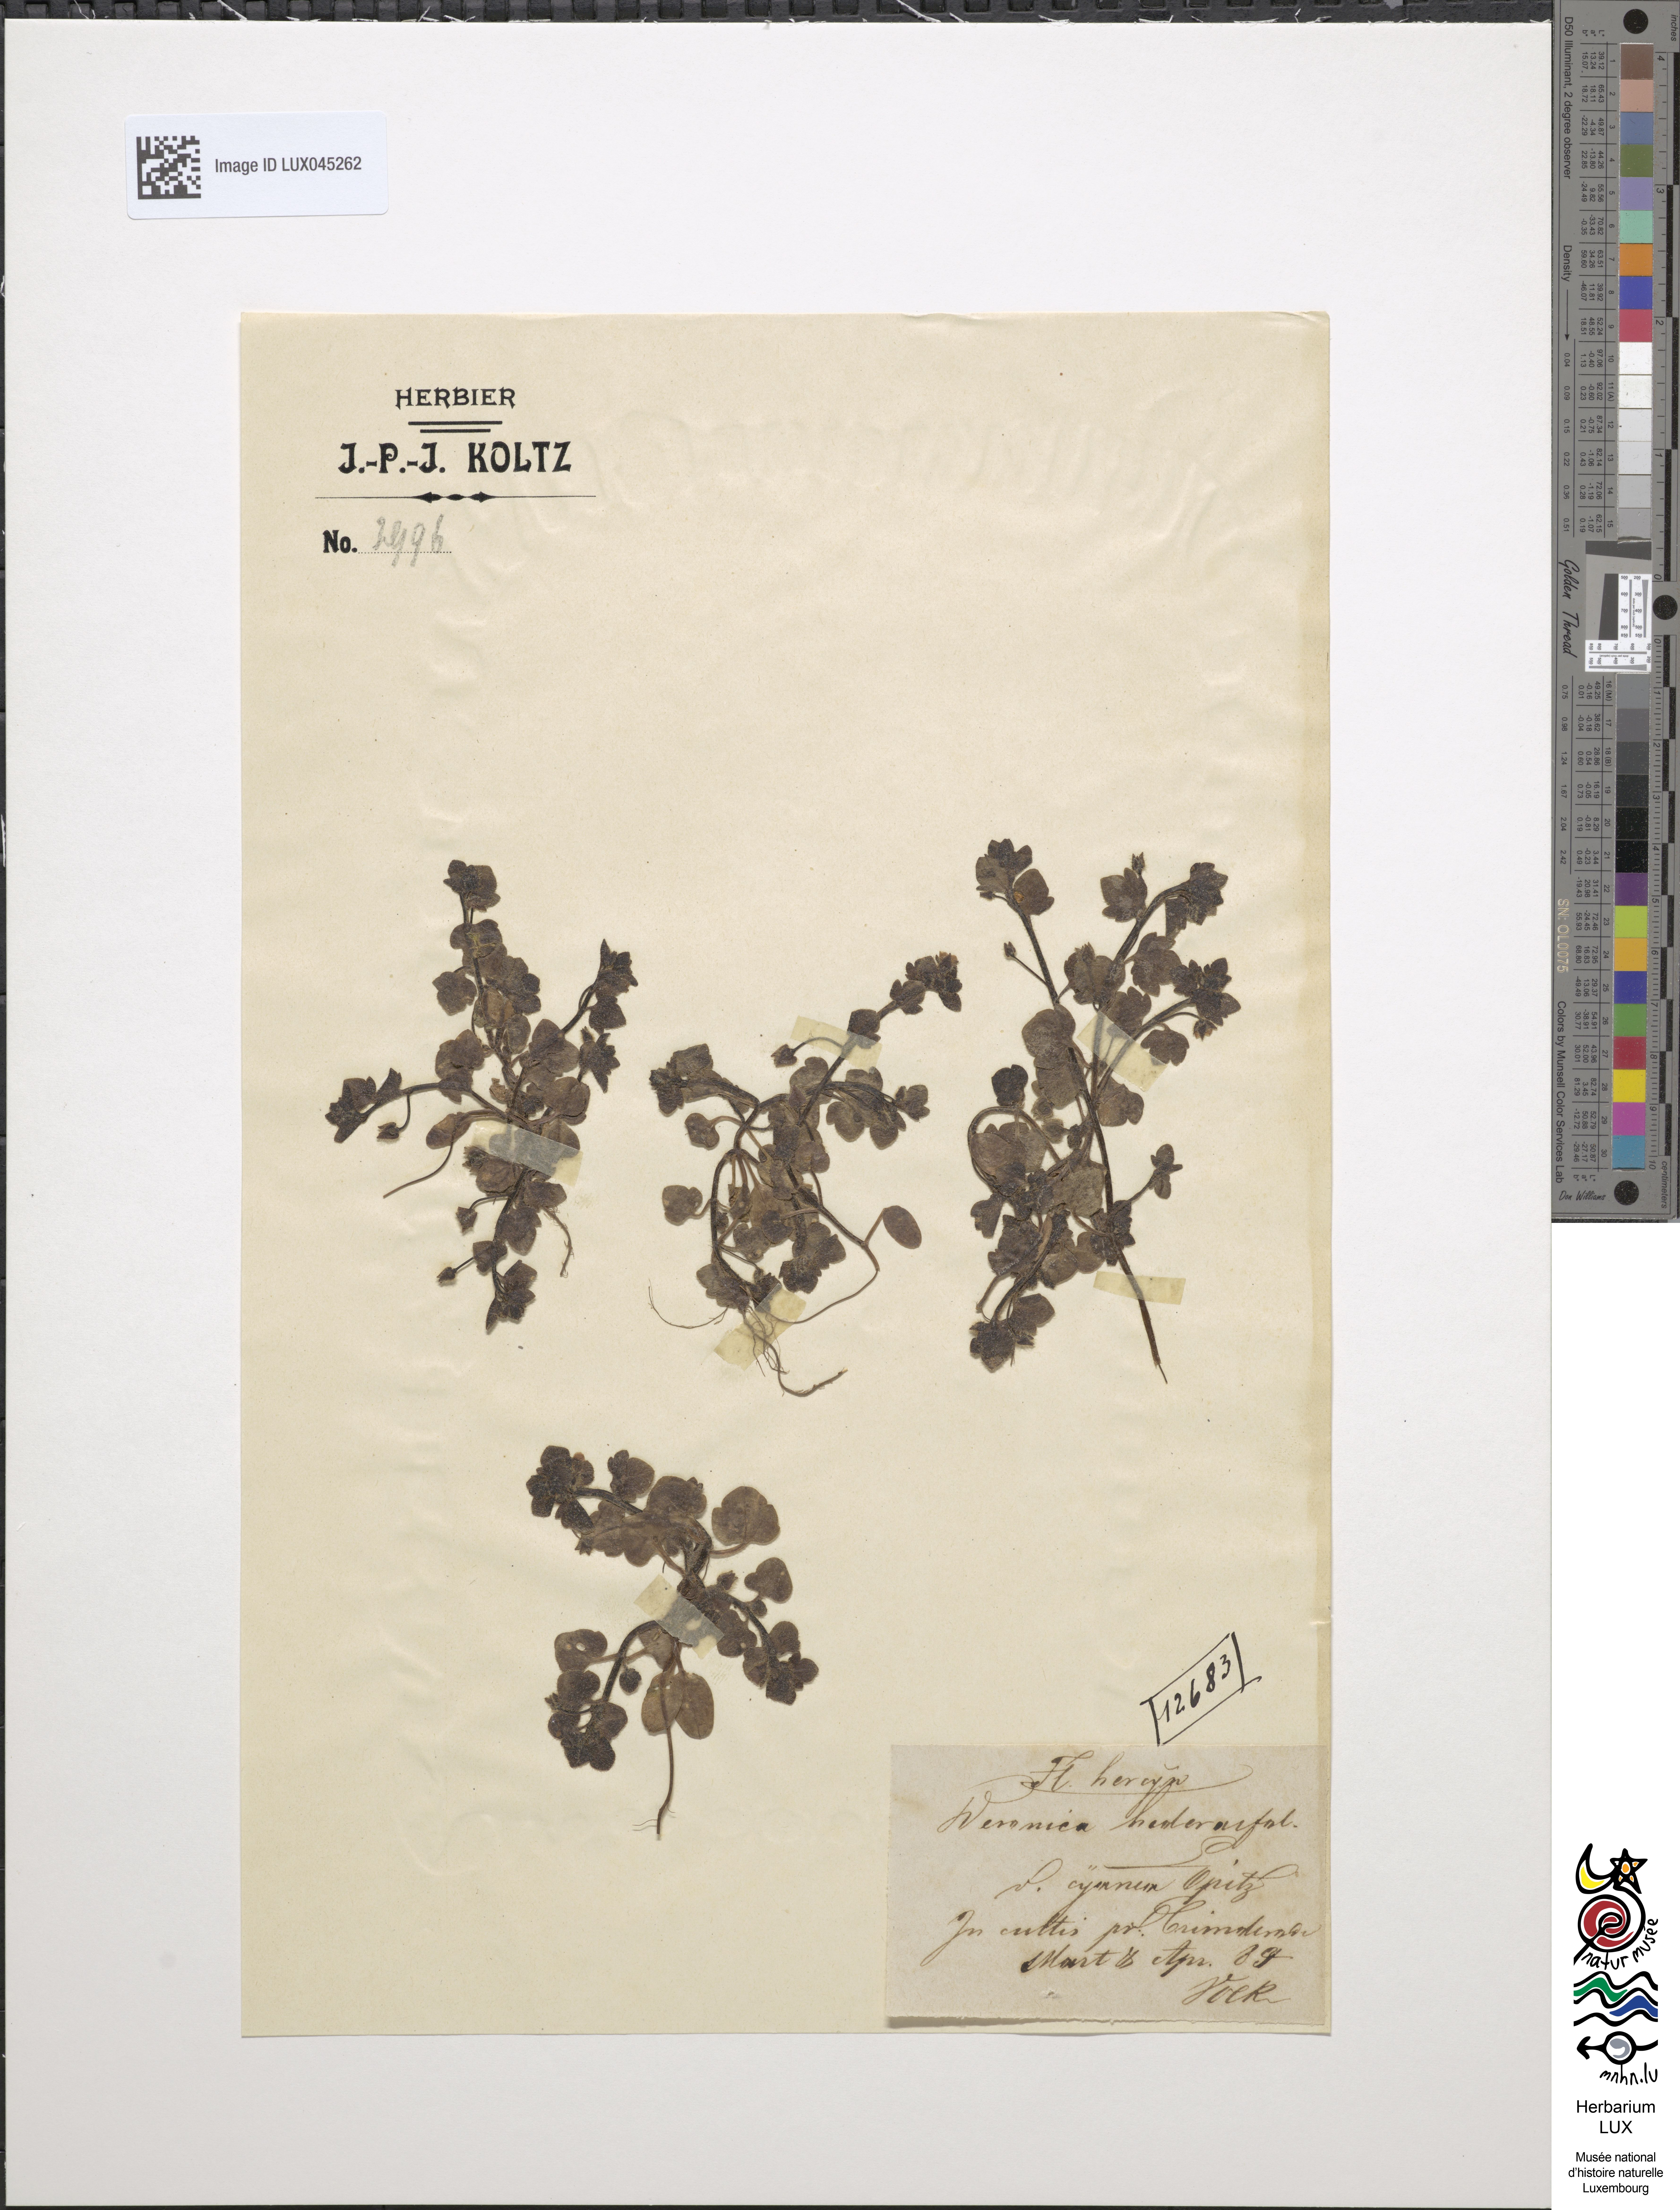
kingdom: Plantae
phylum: Tracheophyta
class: Magnoliopsida
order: Lamiales
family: Plantaginaceae
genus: Veronica
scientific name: Veronica hederifolia
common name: Ivy-leaved speedwell
